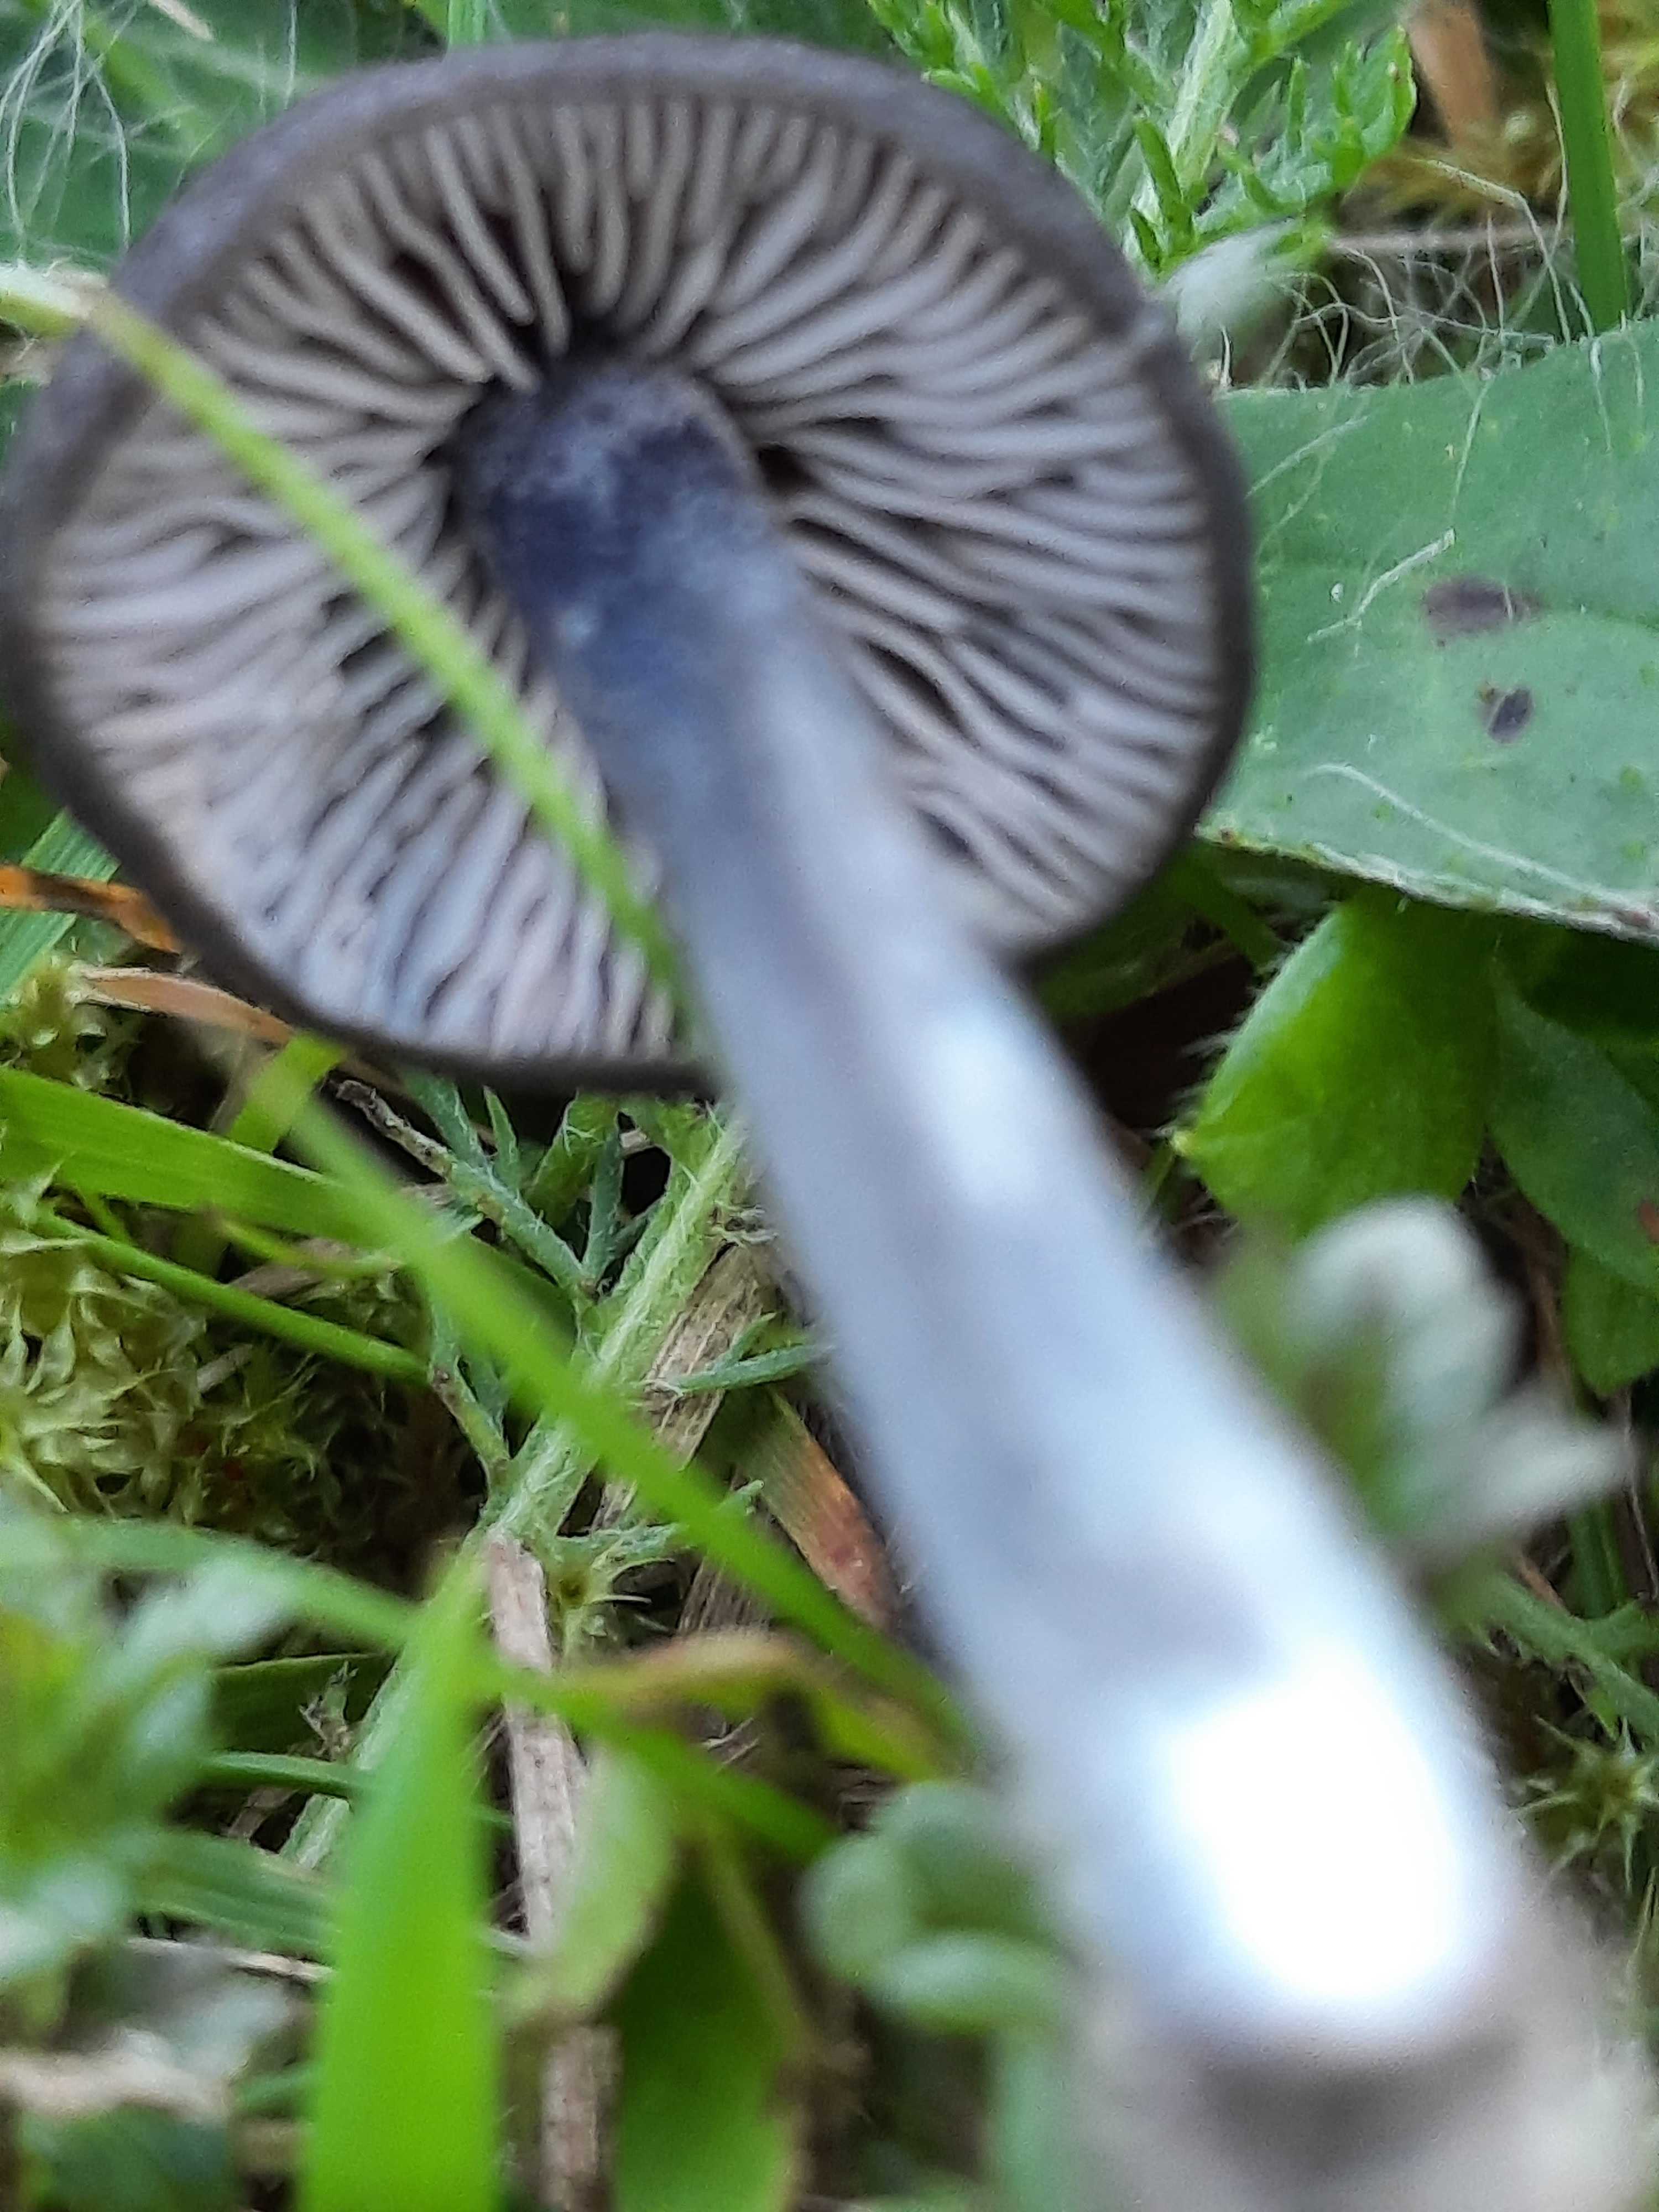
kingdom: Fungi
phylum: Basidiomycota
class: Agaricomycetes
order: Agaricales
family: Entolomataceae
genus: Entoloma
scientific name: Entoloma chalybeum
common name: blåbladet rødblad
